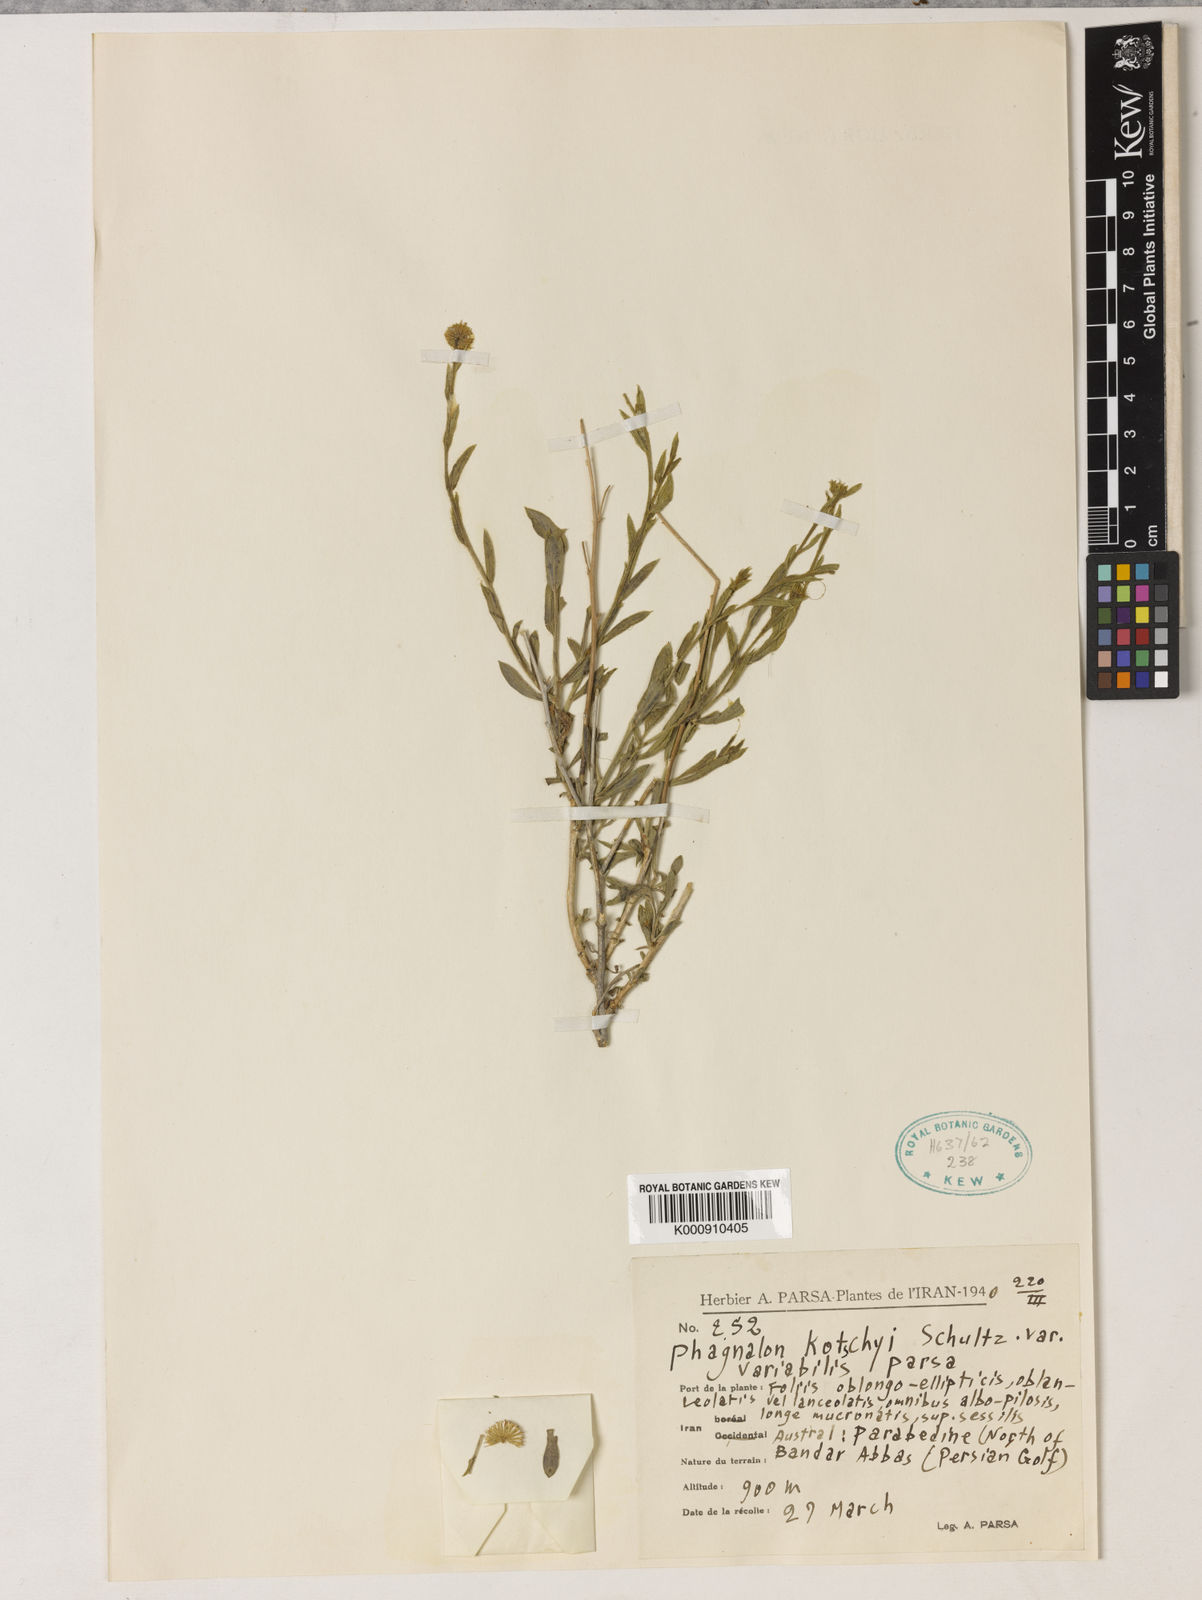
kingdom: Plantae
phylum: Tracheophyta
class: Magnoliopsida
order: Asterales
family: Asteraceae
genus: Phagnalon
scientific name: Phagnalon kotschyi
